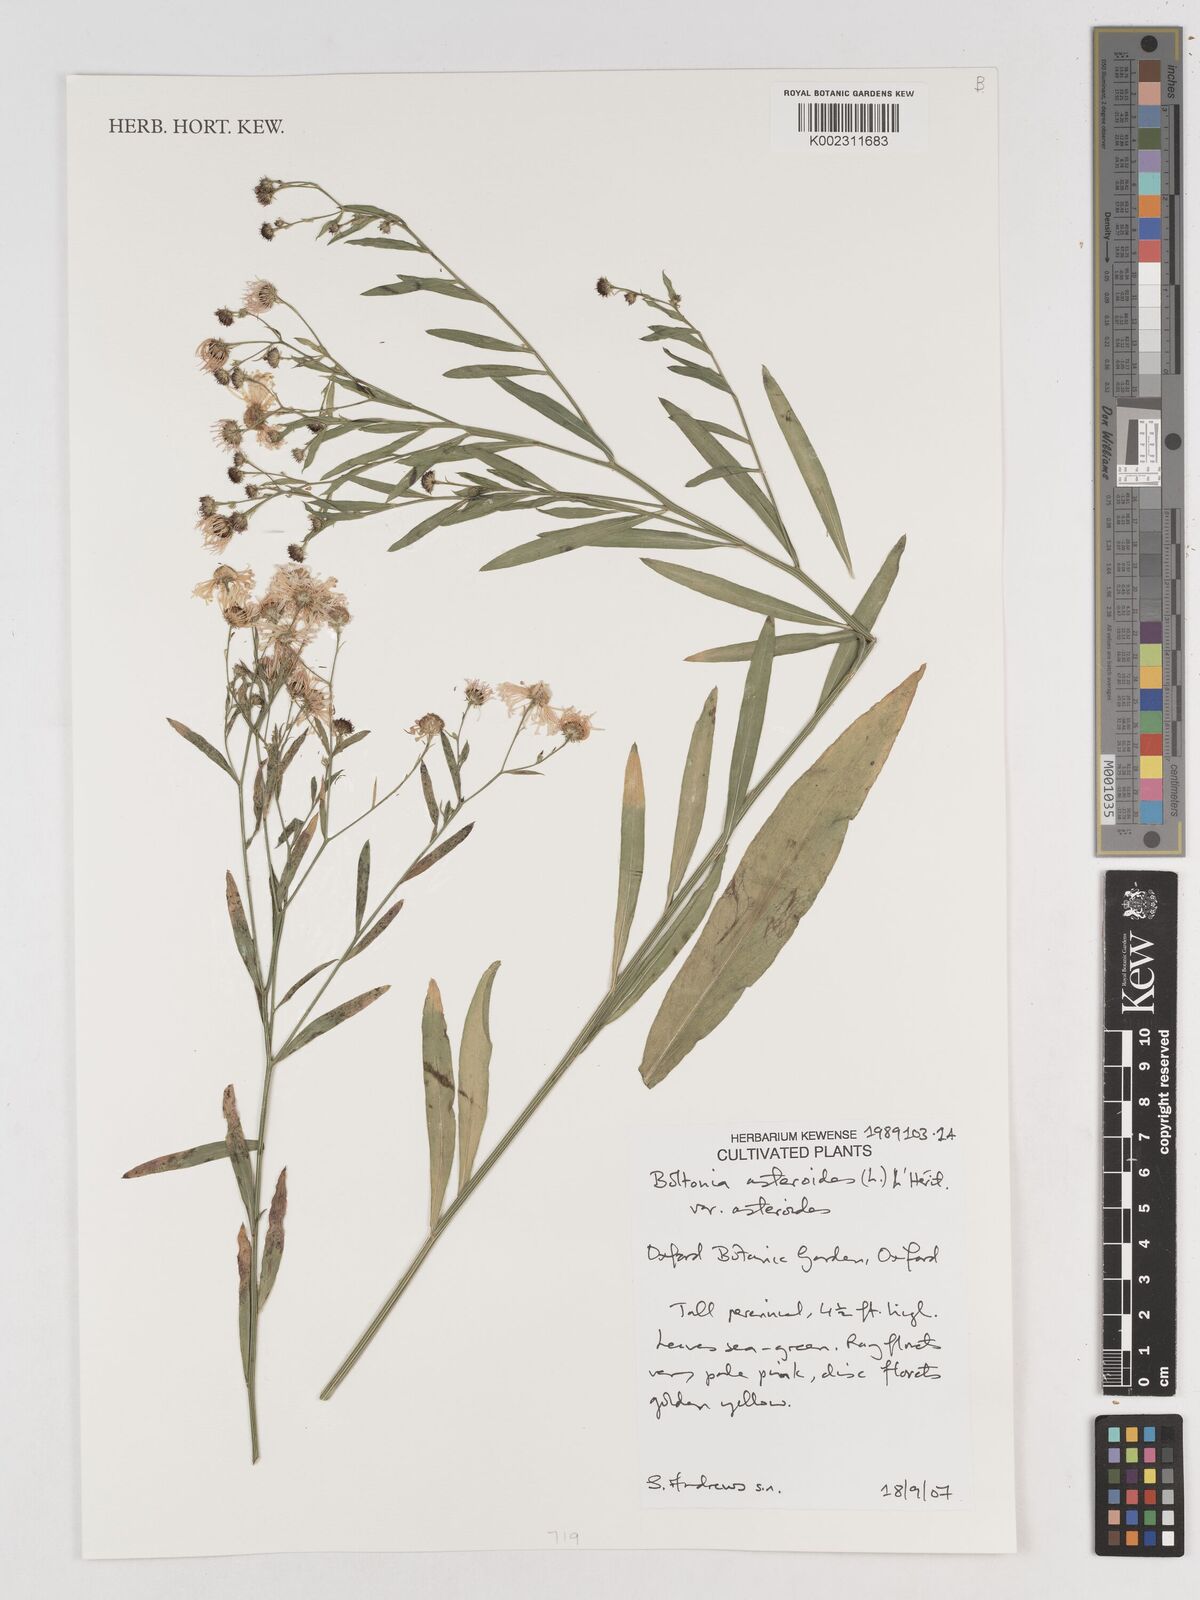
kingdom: Plantae
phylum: Tracheophyta
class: Magnoliopsida
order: Asterales
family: Asteraceae
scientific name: Asteraceae
